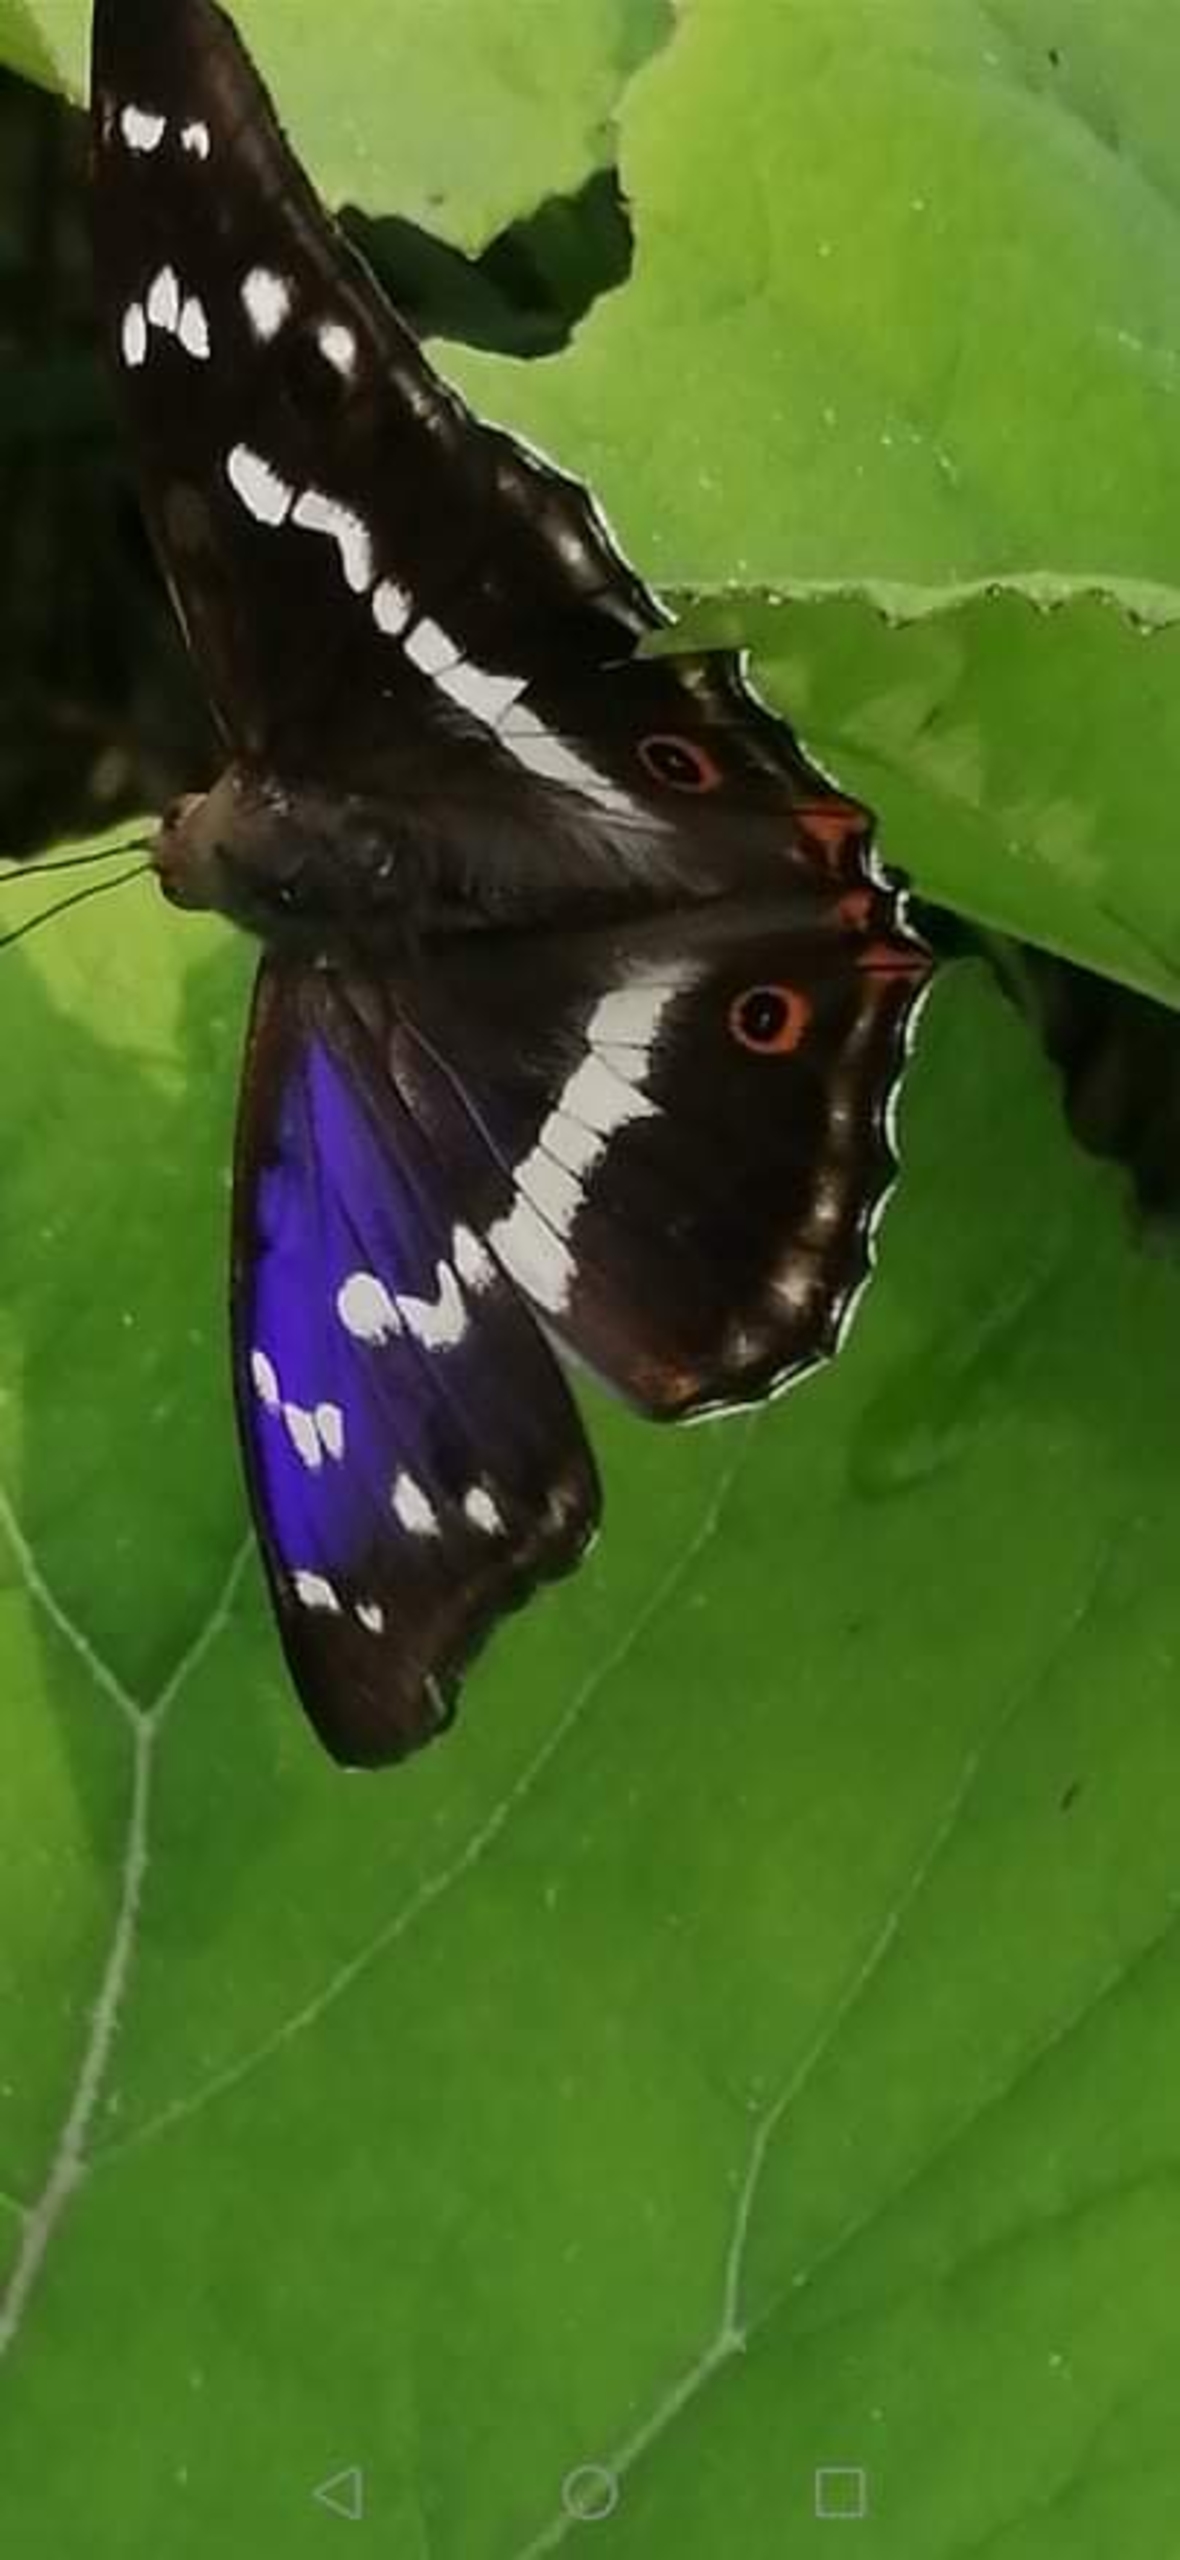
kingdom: Animalia
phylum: Arthropoda
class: Insecta
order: Lepidoptera
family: Nymphalidae
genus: Apatura
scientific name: Apatura iris
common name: Iris
